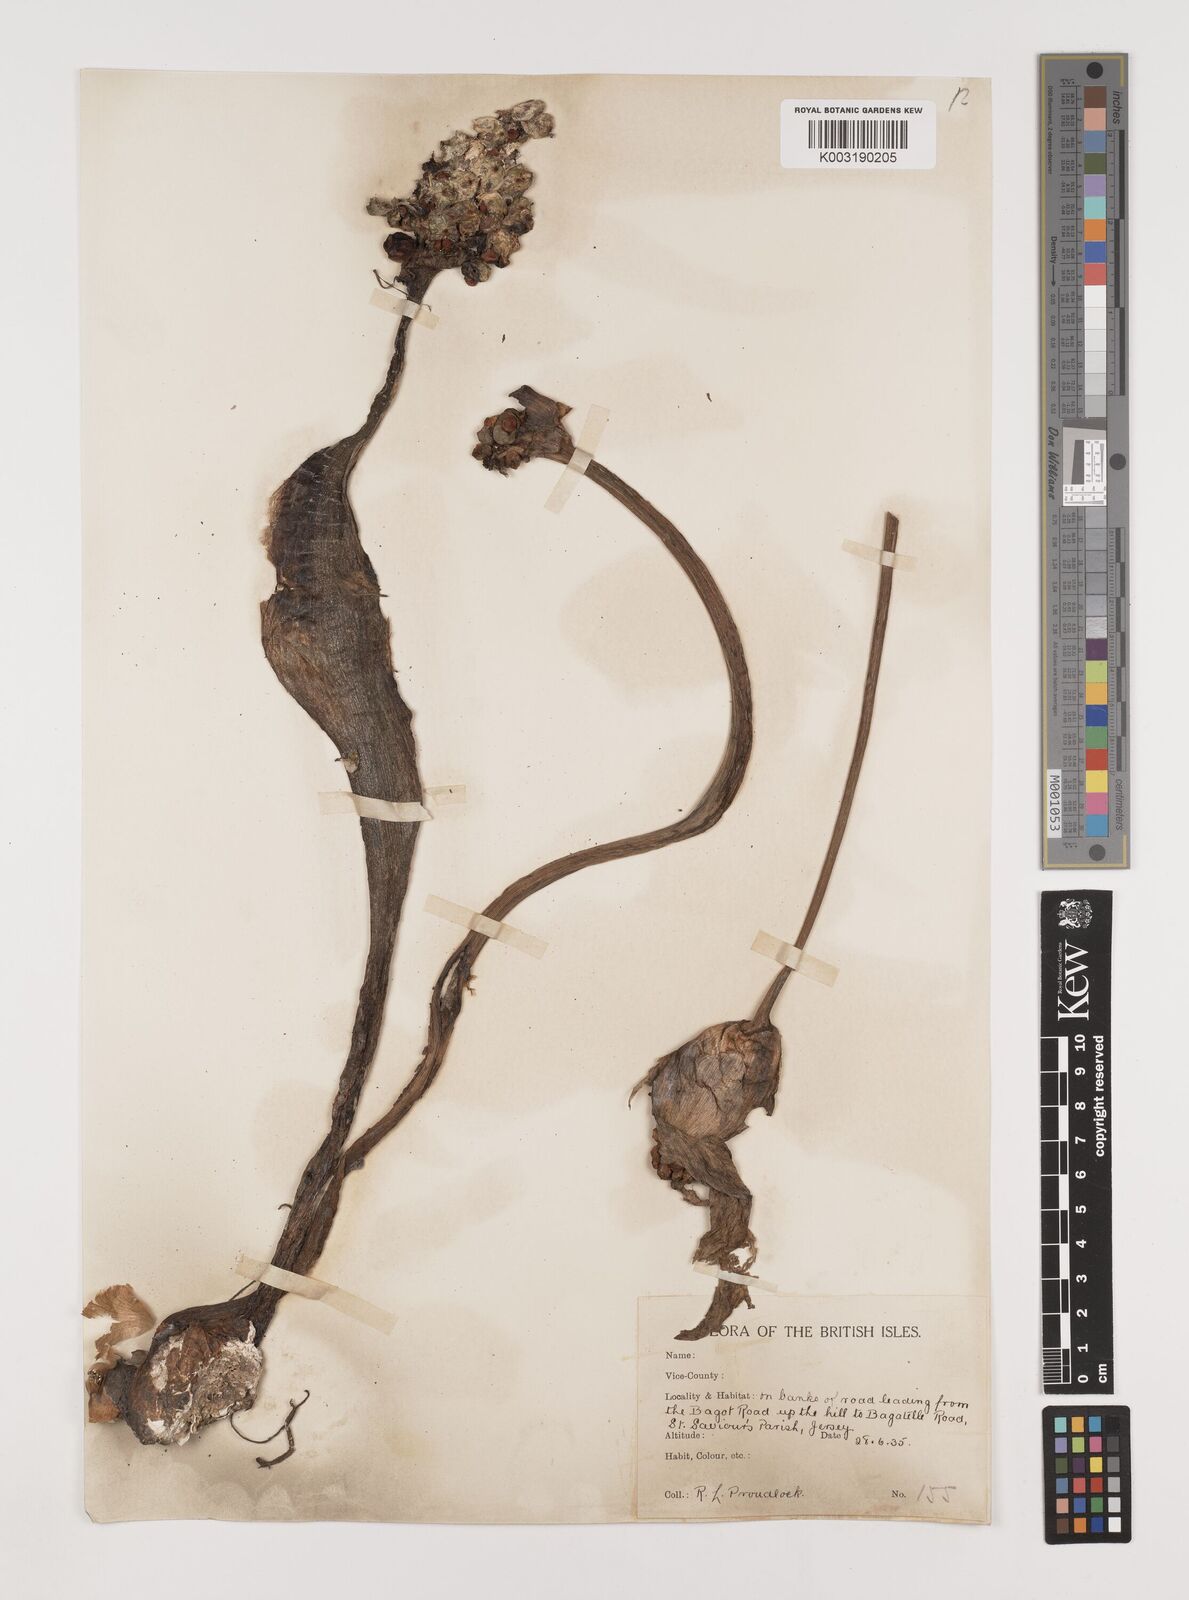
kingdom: Plantae
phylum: Tracheophyta
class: Liliopsida
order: Alismatales
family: Araceae
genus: Arum
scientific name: Arum italicum
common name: Italian lords-and-ladies
